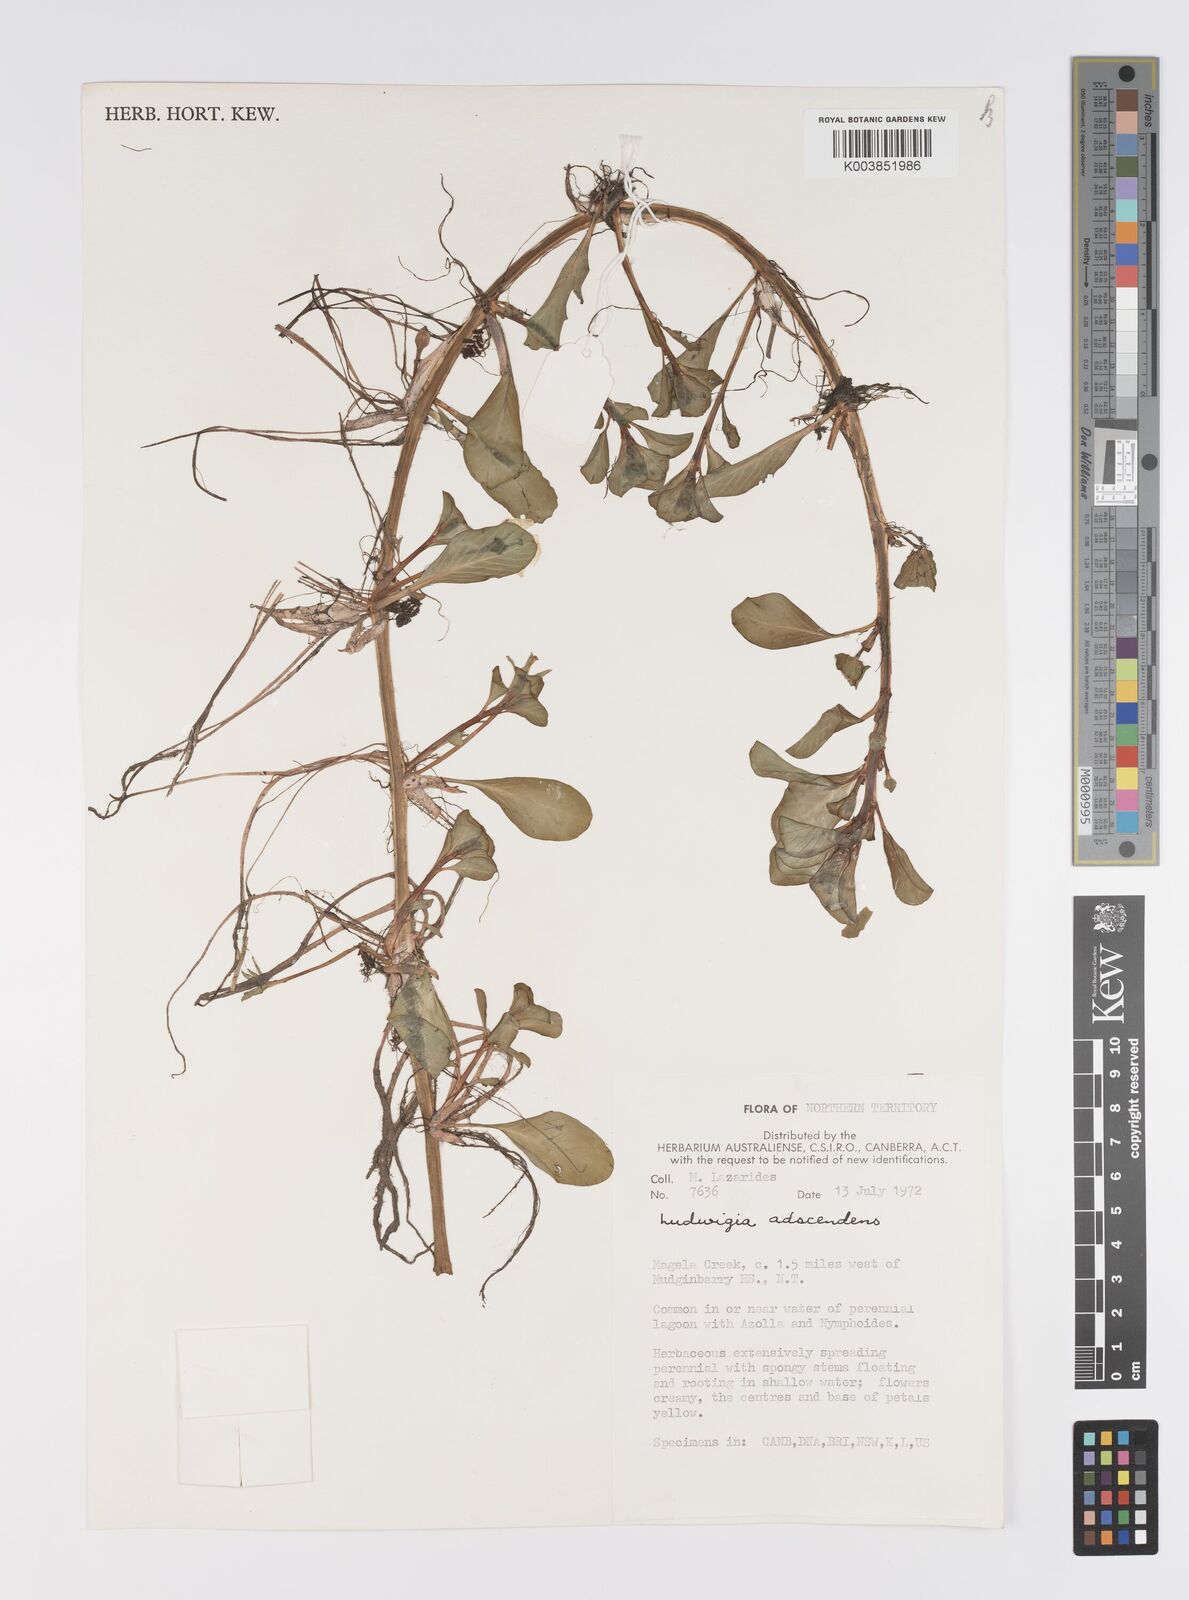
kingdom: Plantae
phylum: Tracheophyta
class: Magnoliopsida
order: Myrtales
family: Onagraceae
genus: Ludwigia
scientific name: Ludwigia adscendens
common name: Creeping water primrose
